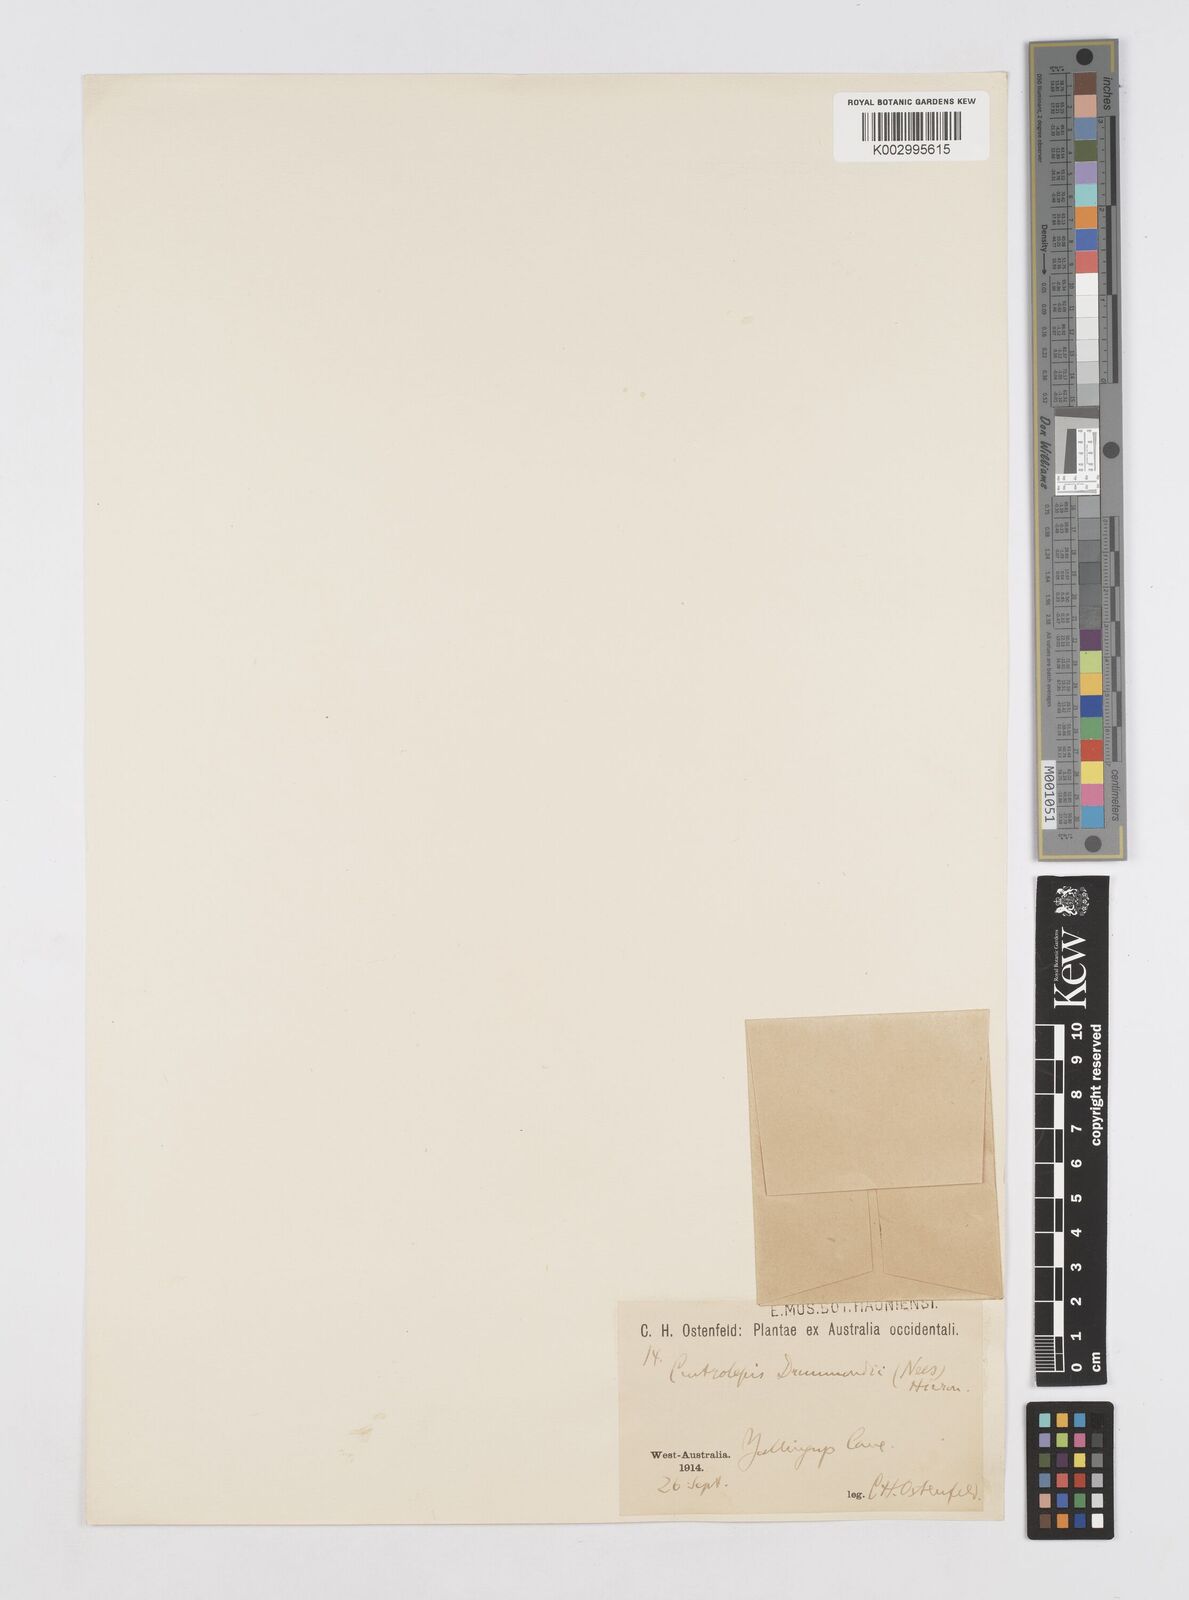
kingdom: Plantae
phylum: Tracheophyta
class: Liliopsida
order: Poales
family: Restionaceae
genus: Centrolepis
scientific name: Centrolepis drummondiana
